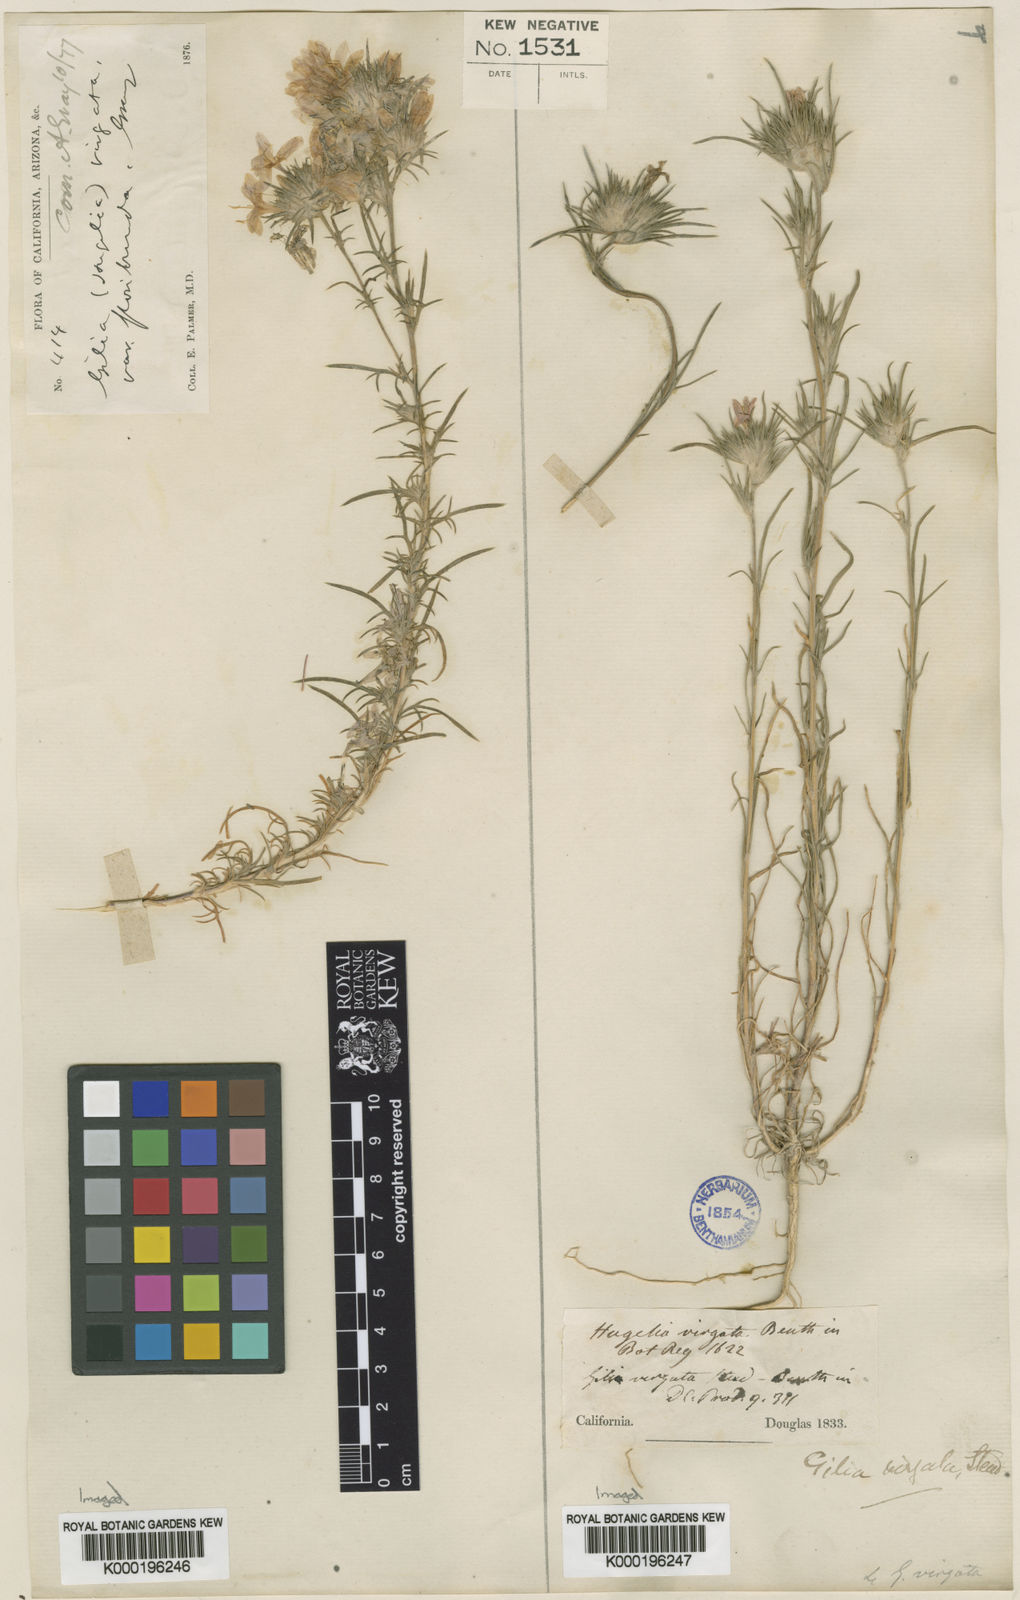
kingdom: Plantae
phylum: Tracheophyta
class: Magnoliopsida
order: Ericales
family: Polemoniaceae
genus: Eriastrum
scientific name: Eriastrum virgatum
